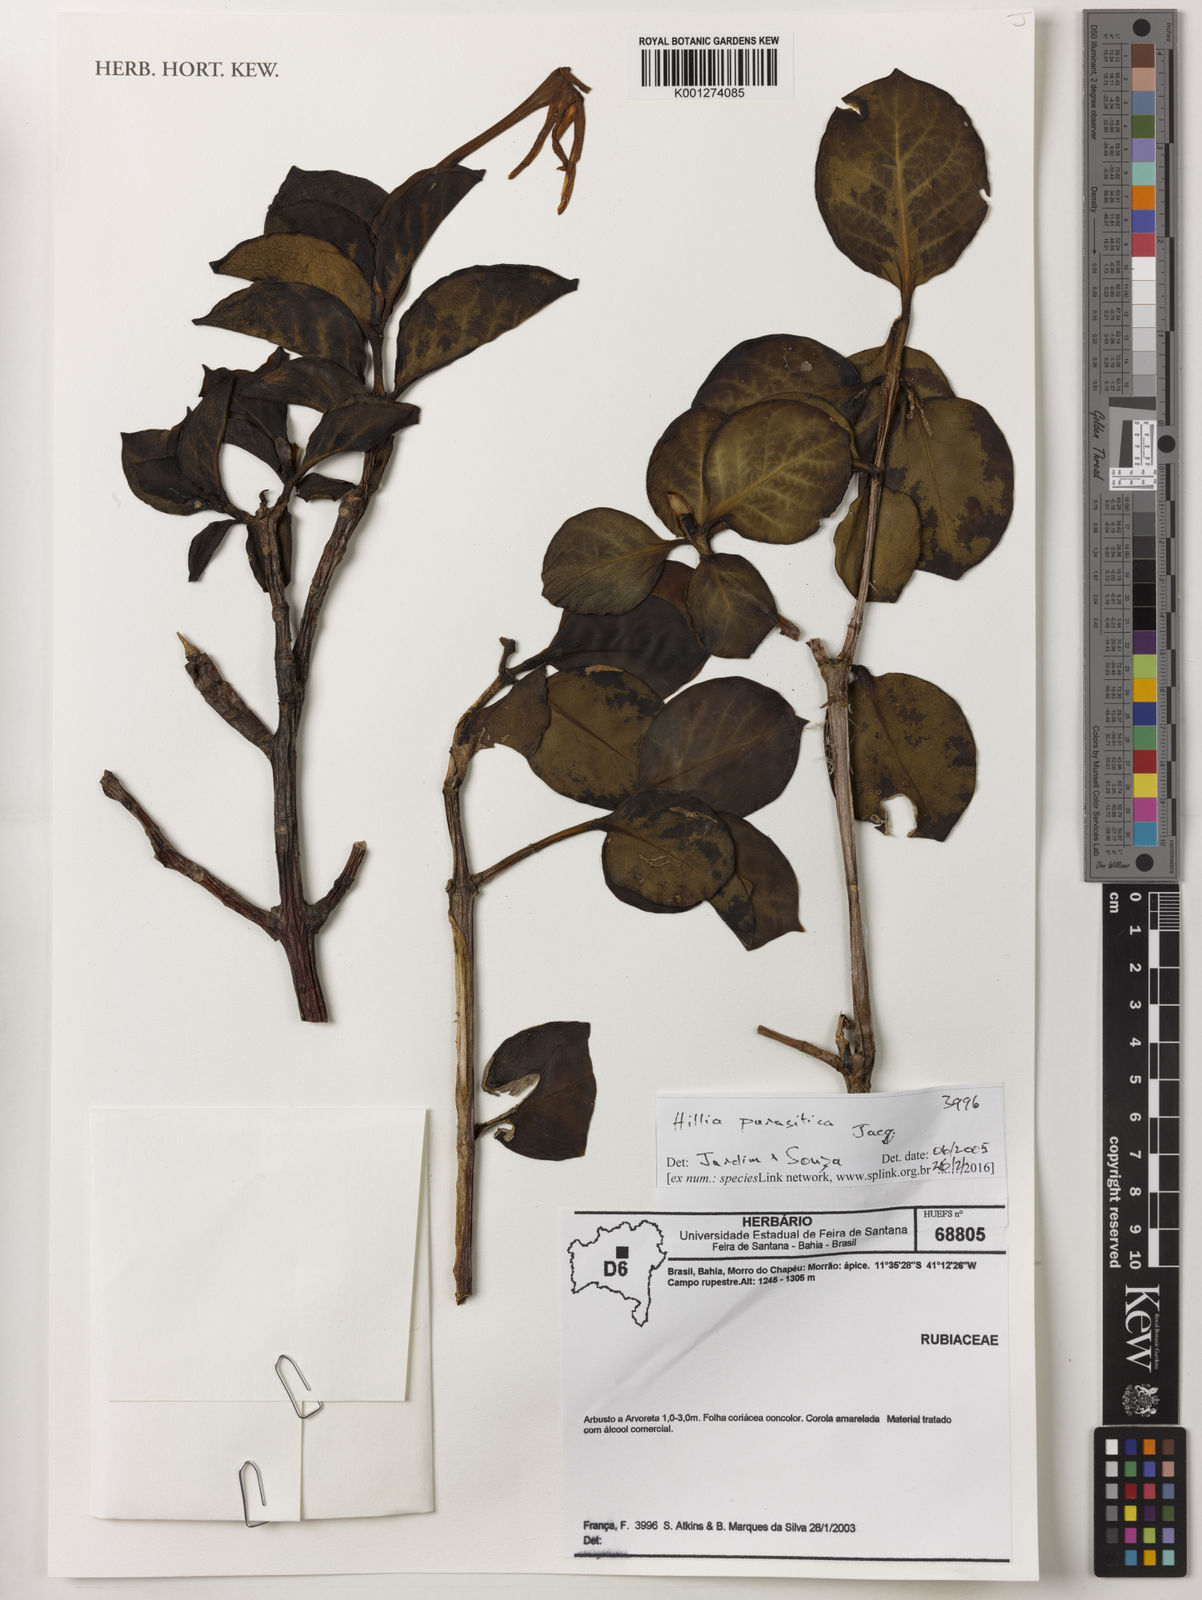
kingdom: Plantae
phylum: Tracheophyta
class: Magnoliopsida
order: Gentianales
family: Rubiaceae
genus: Hillia
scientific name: Hillia parasitica
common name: Morning star
